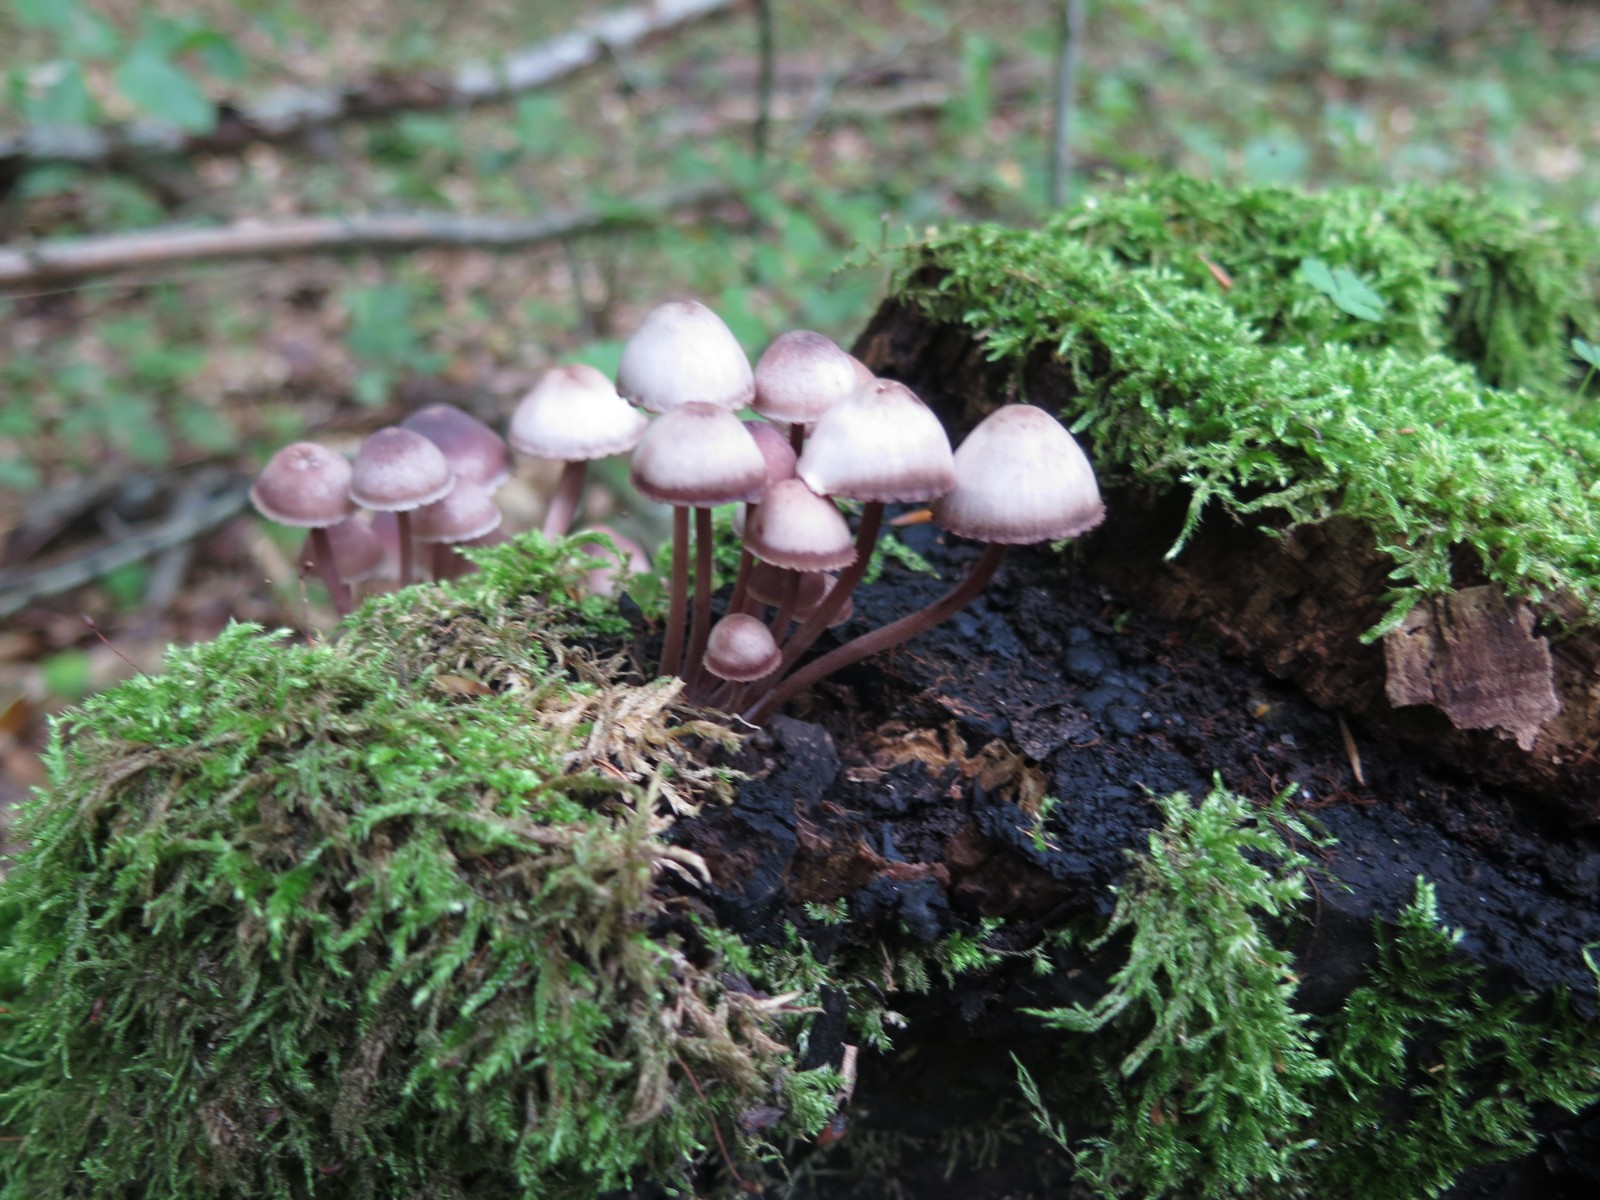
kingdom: Fungi
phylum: Basidiomycota
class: Agaricomycetes
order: Agaricales
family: Mycenaceae
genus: Mycena
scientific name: Mycena haematopus
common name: blødende huesvamp
